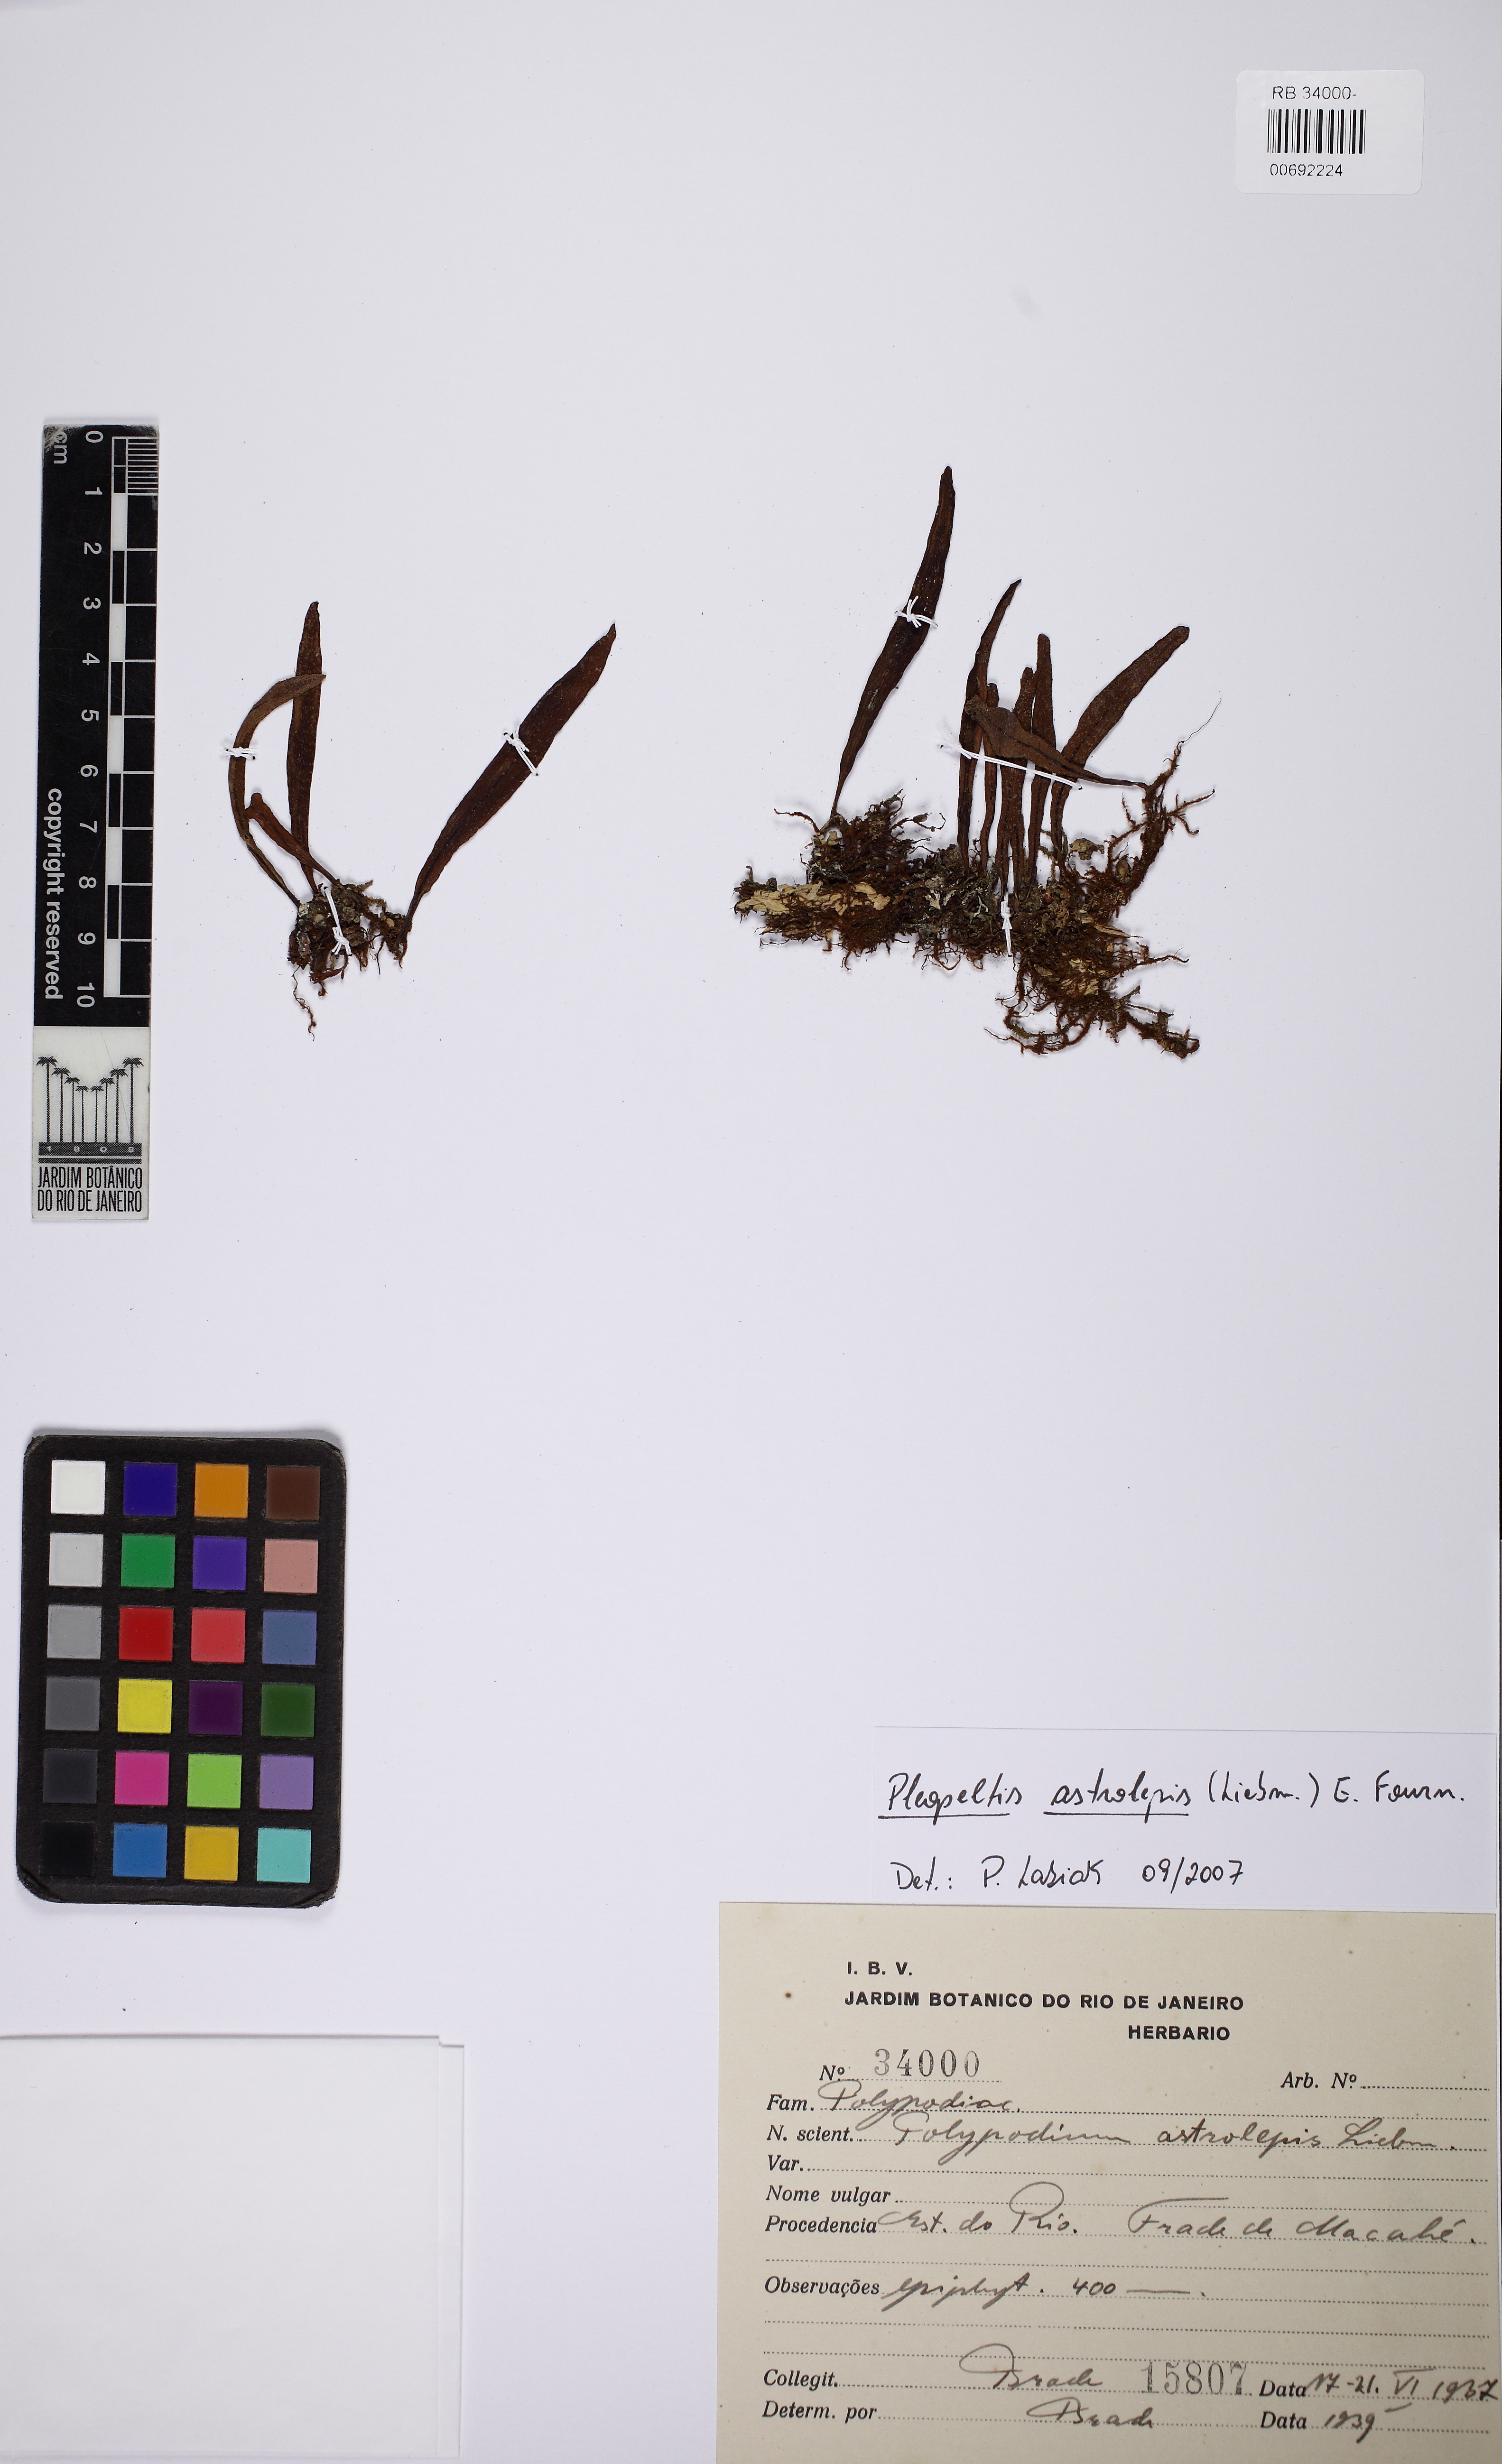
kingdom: Plantae
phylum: Tracheophyta
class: Polypodiopsida
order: Polypodiales
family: Polypodiaceae
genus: Pleopeltis
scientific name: Pleopeltis astrolepis
